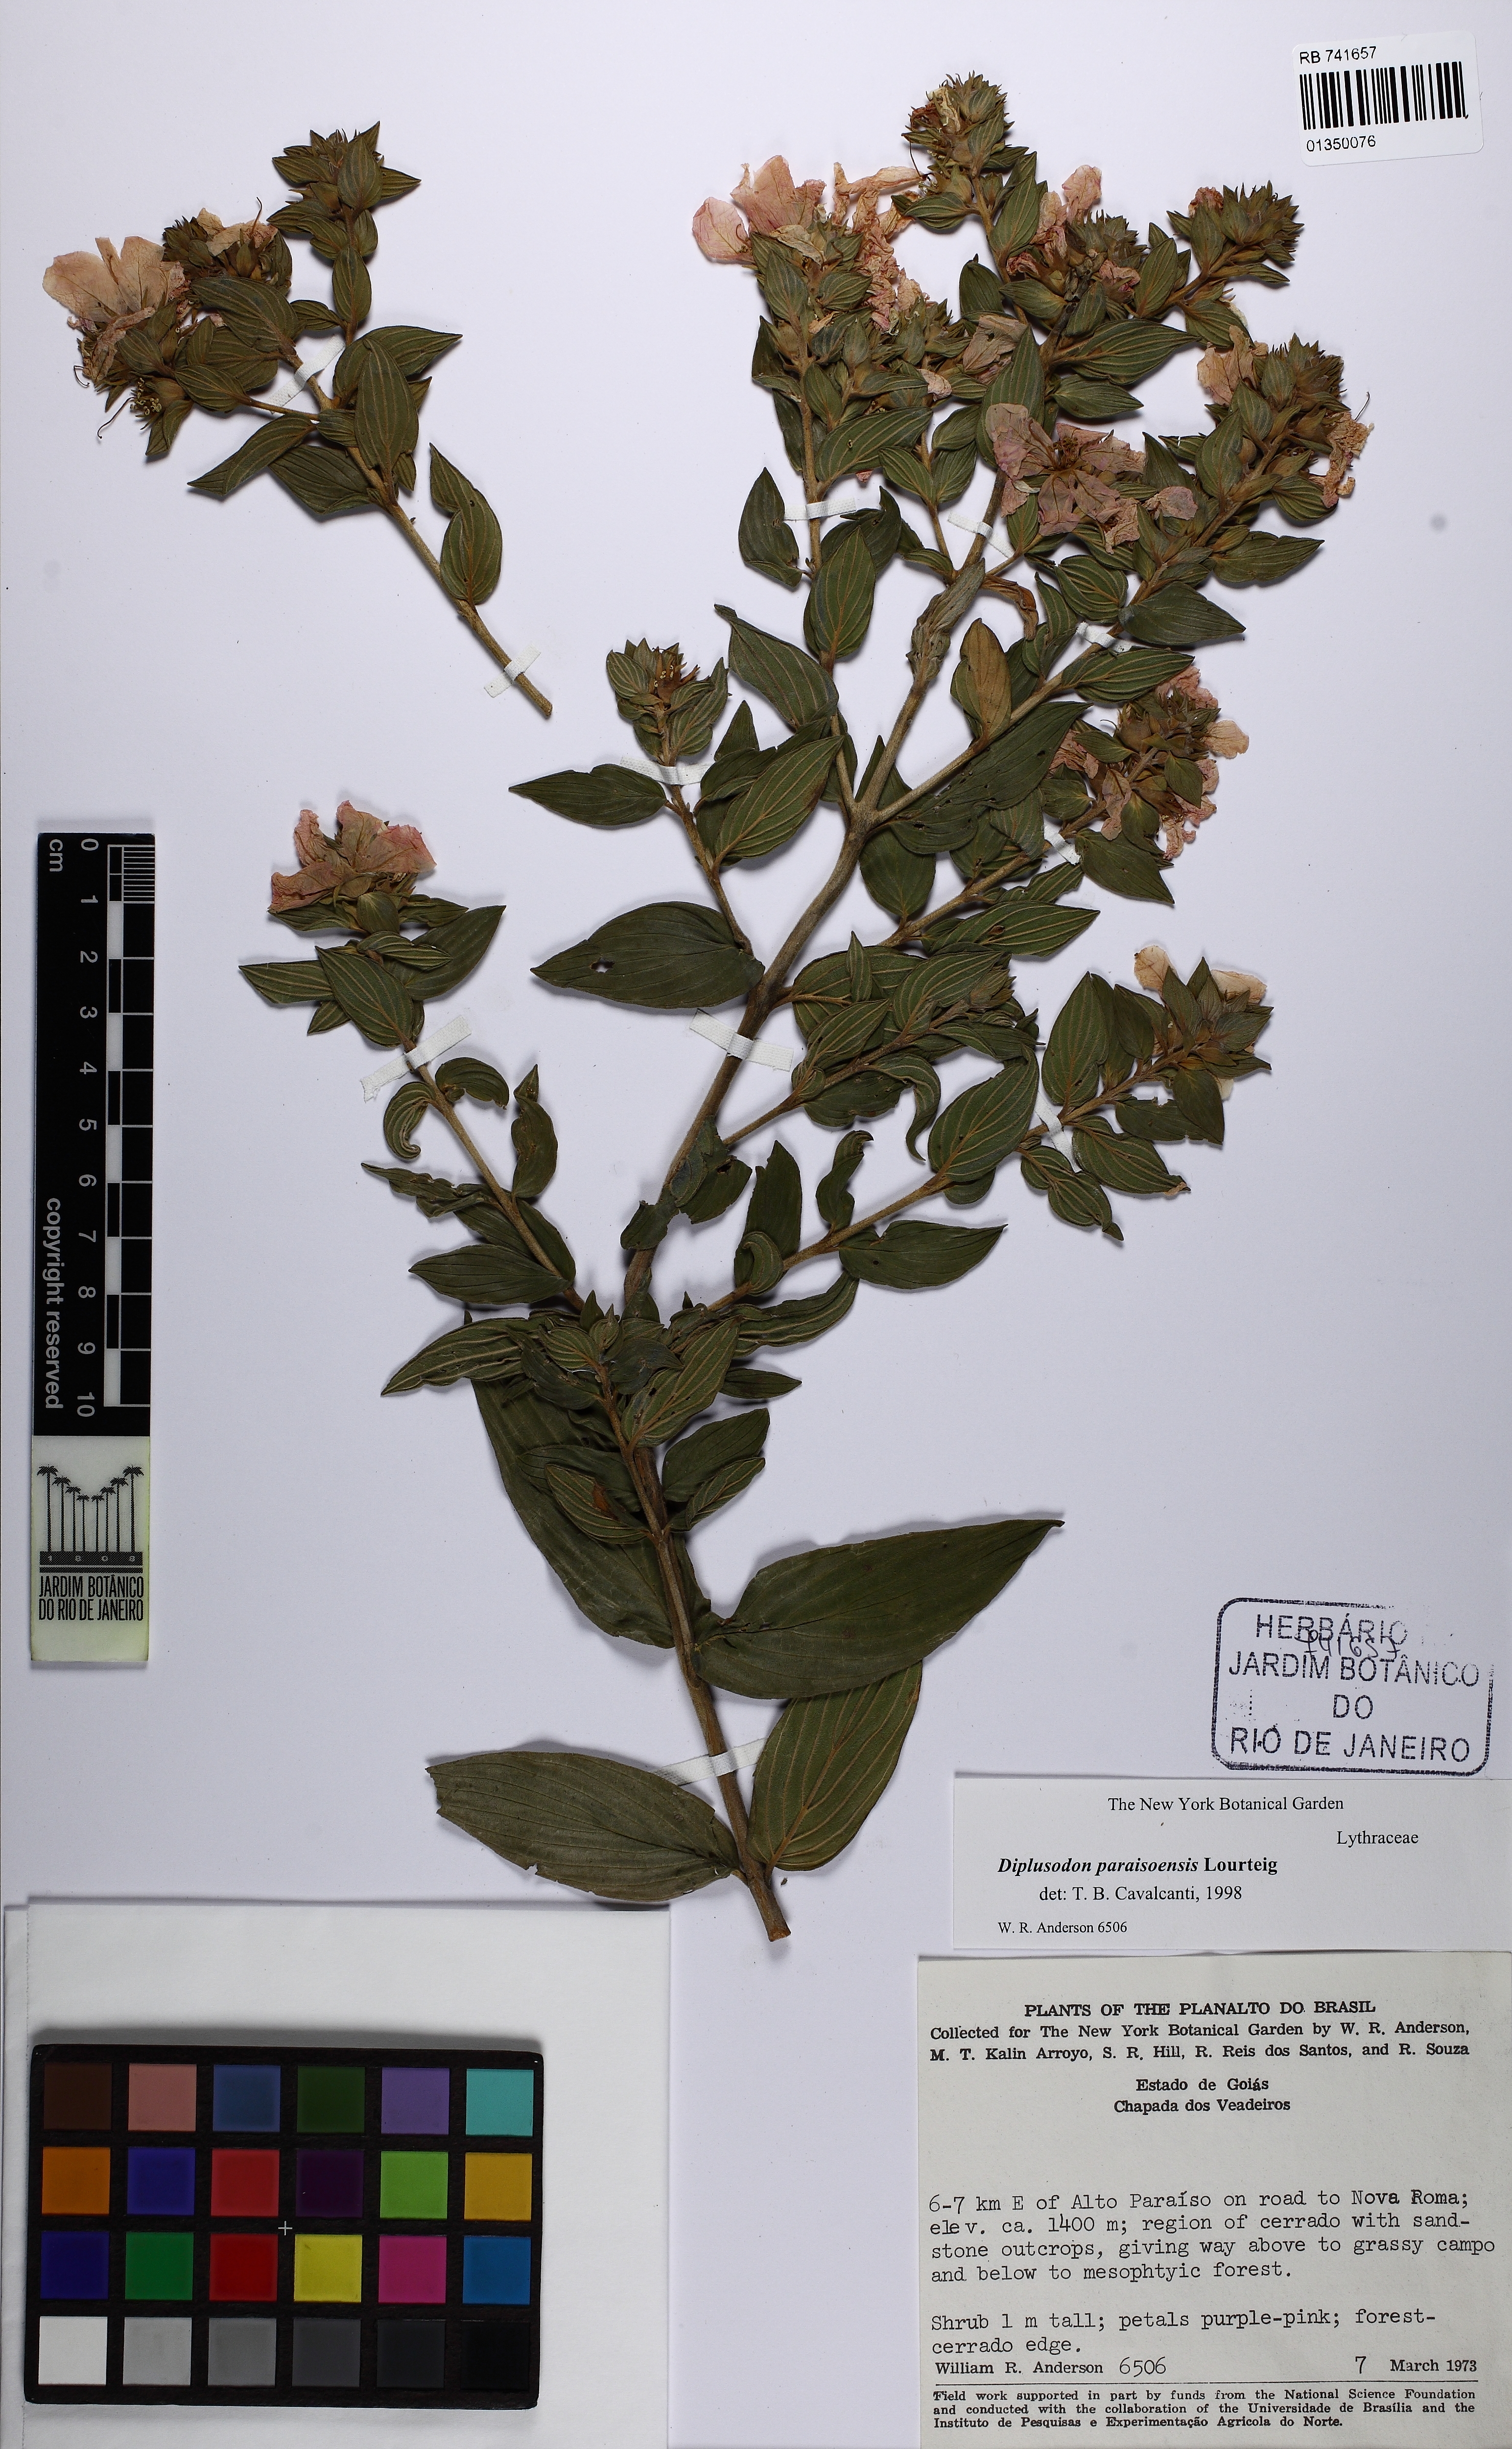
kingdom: Plantae
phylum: Tracheophyta
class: Magnoliopsida
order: Myrtales
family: Lythraceae
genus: Diplusodon
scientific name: Diplusodon paraisoensis
